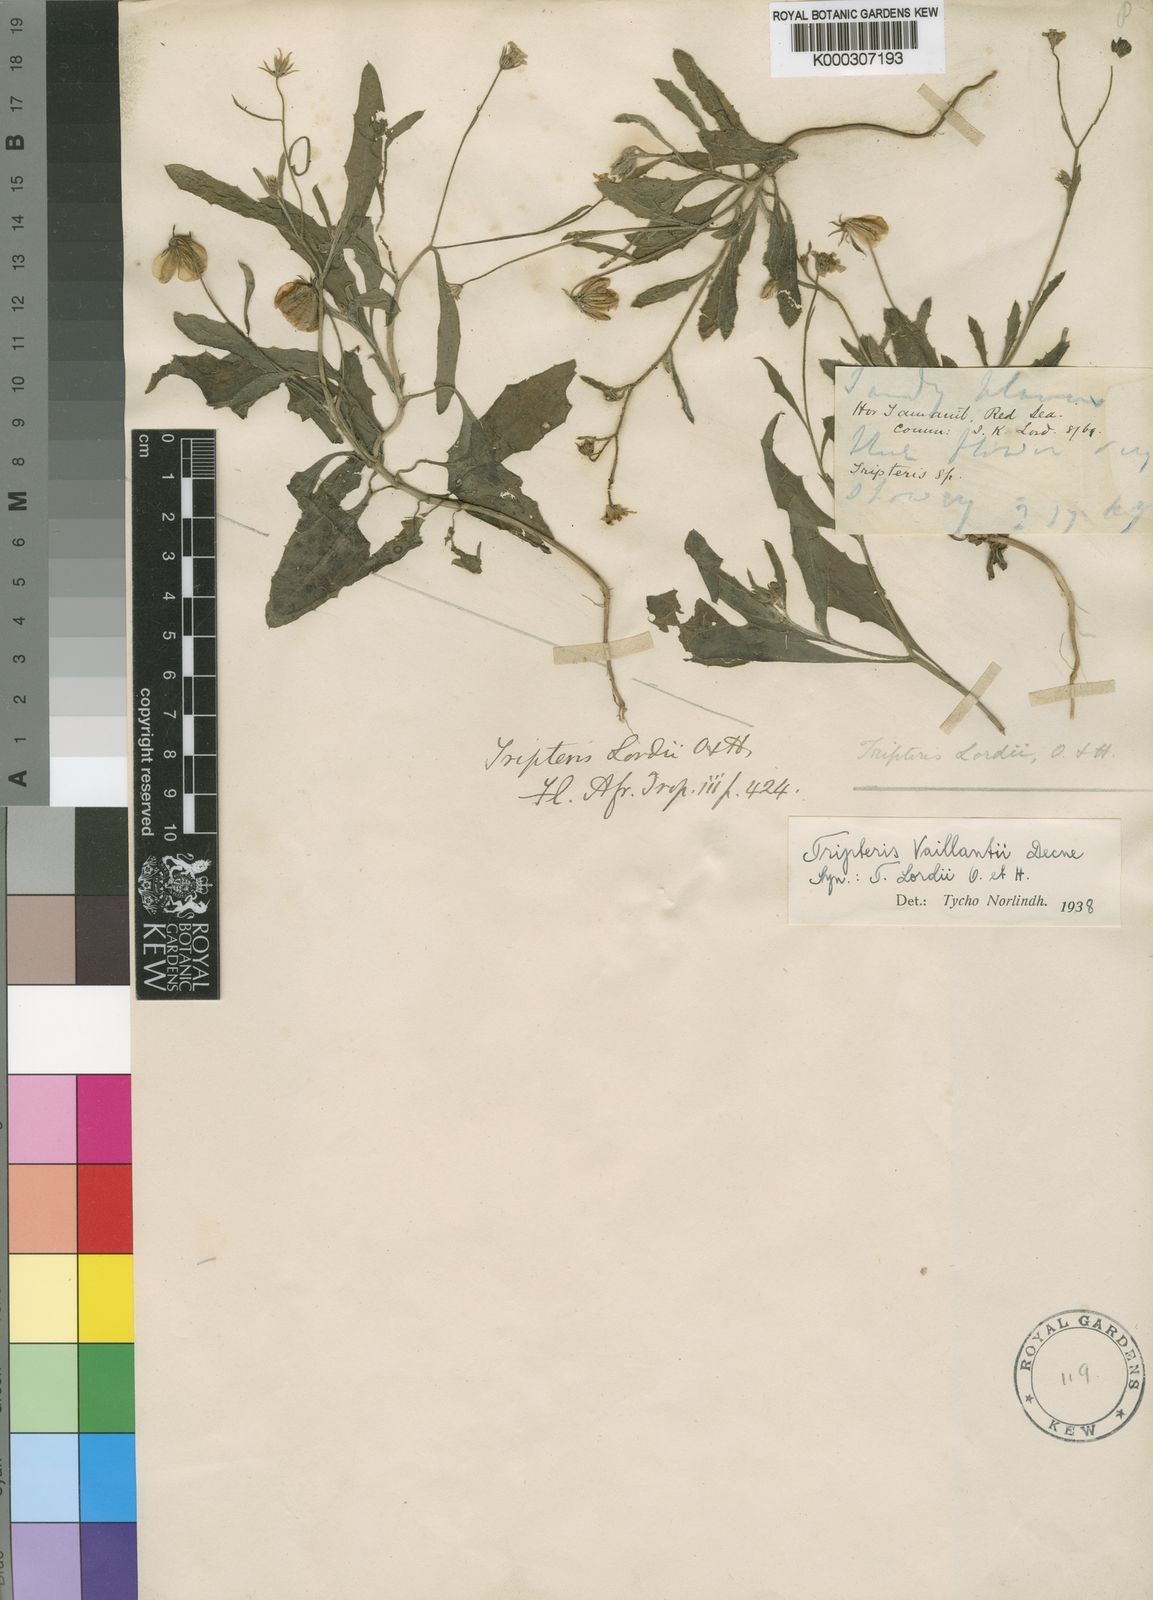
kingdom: Plantae
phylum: Tracheophyta
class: Magnoliopsida
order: Asterales
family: Asteraceae
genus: Osteospermum
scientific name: Osteospermum vaillantii
